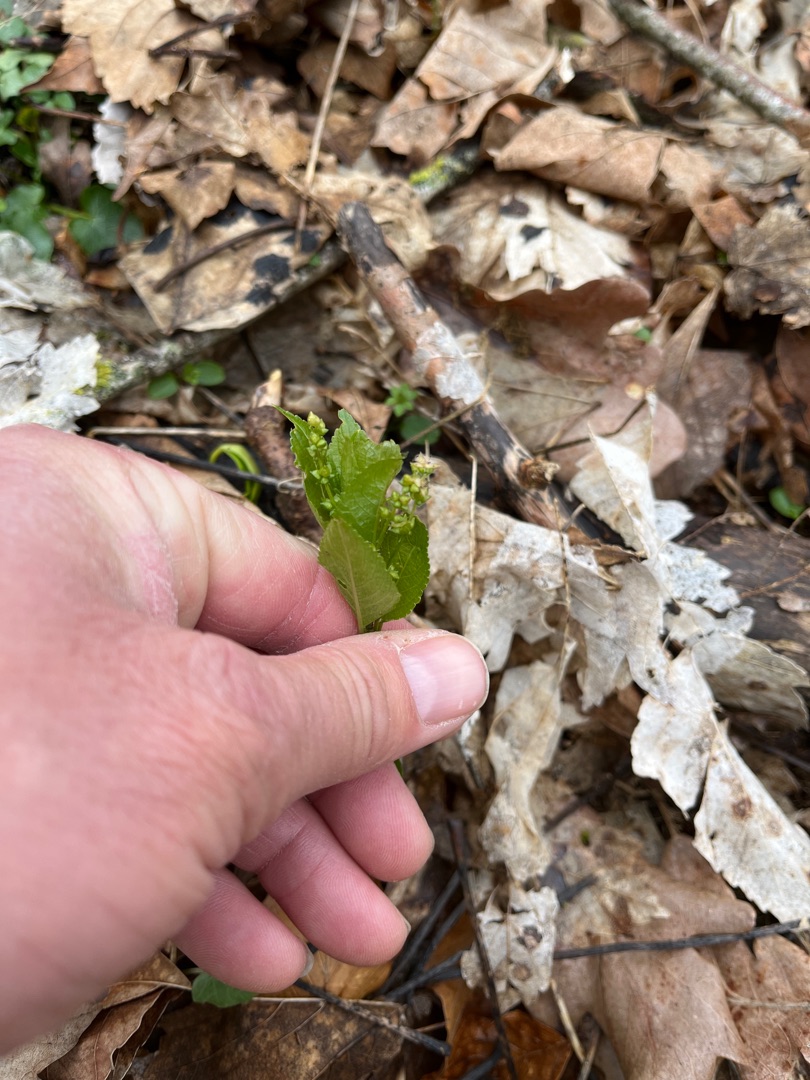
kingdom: Plantae
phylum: Tracheophyta
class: Magnoliopsida
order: Malpighiales
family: Euphorbiaceae
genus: Mercurialis
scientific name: Mercurialis perennis
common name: Almindelig bingelurt
